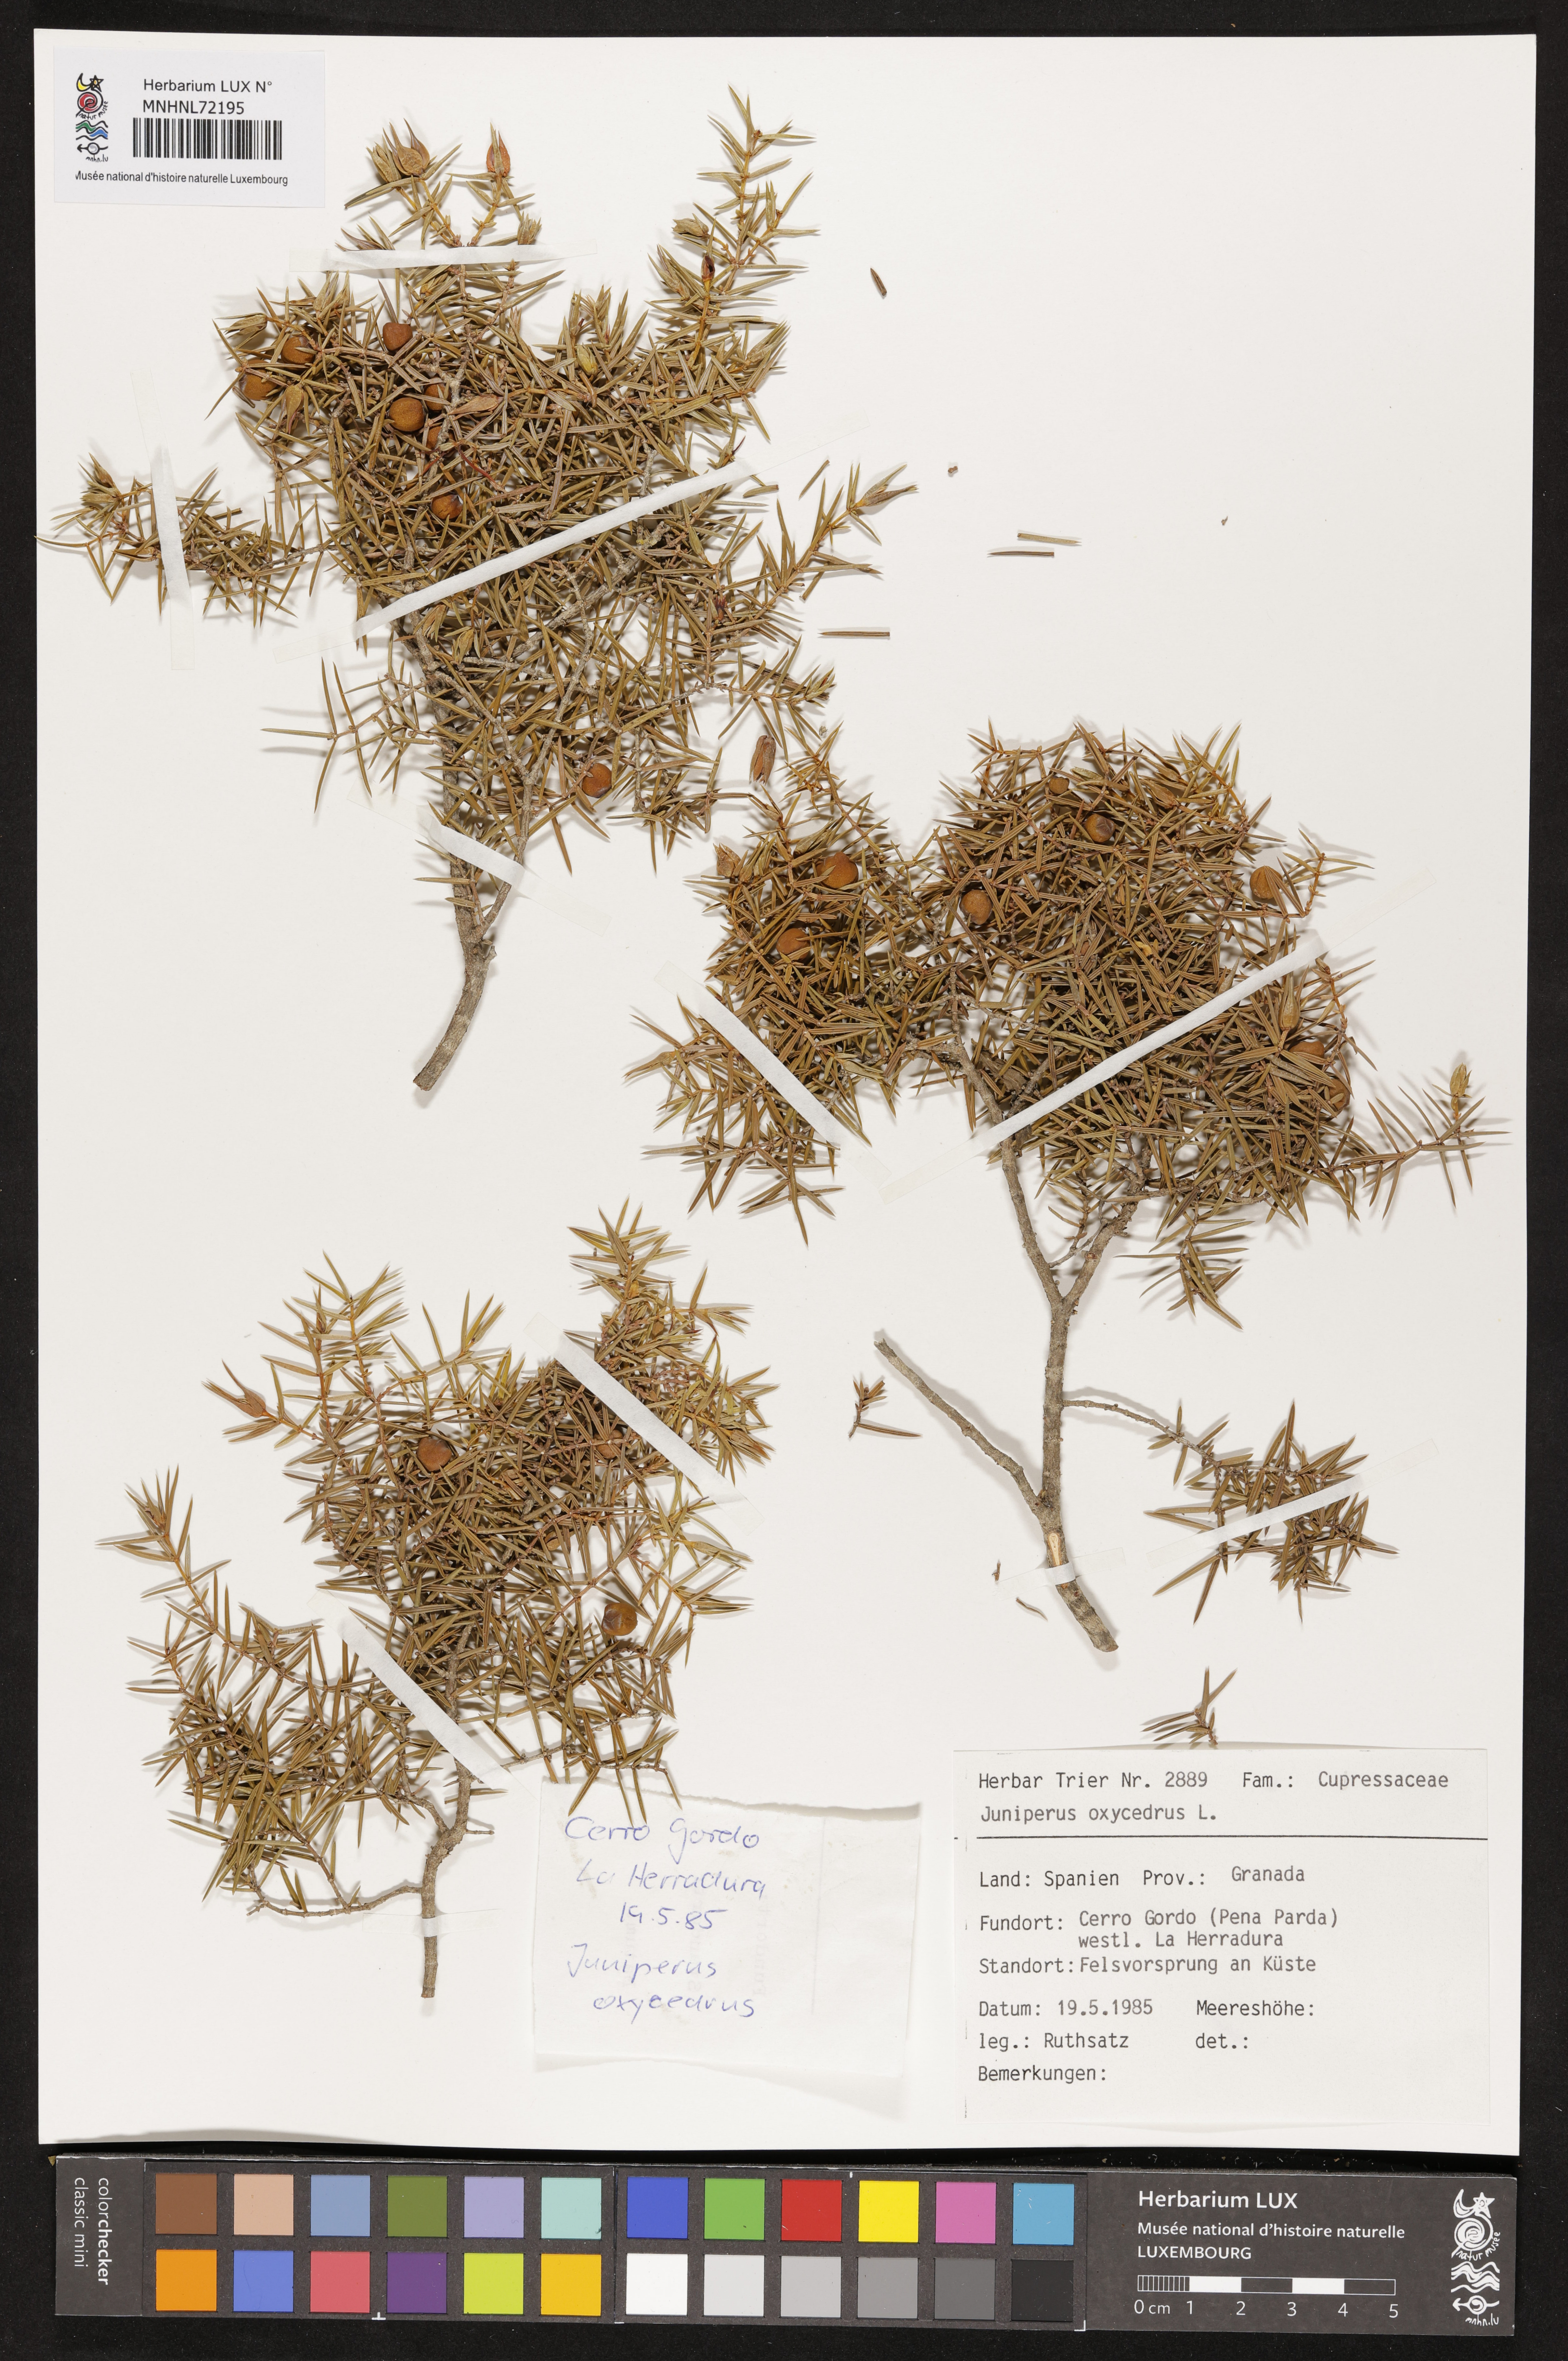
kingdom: Plantae
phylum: Tracheophyta
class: Pinopsida
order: Pinales
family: Cupressaceae
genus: Juniperus
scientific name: Juniperus oxycedrus
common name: Prickly juniper
